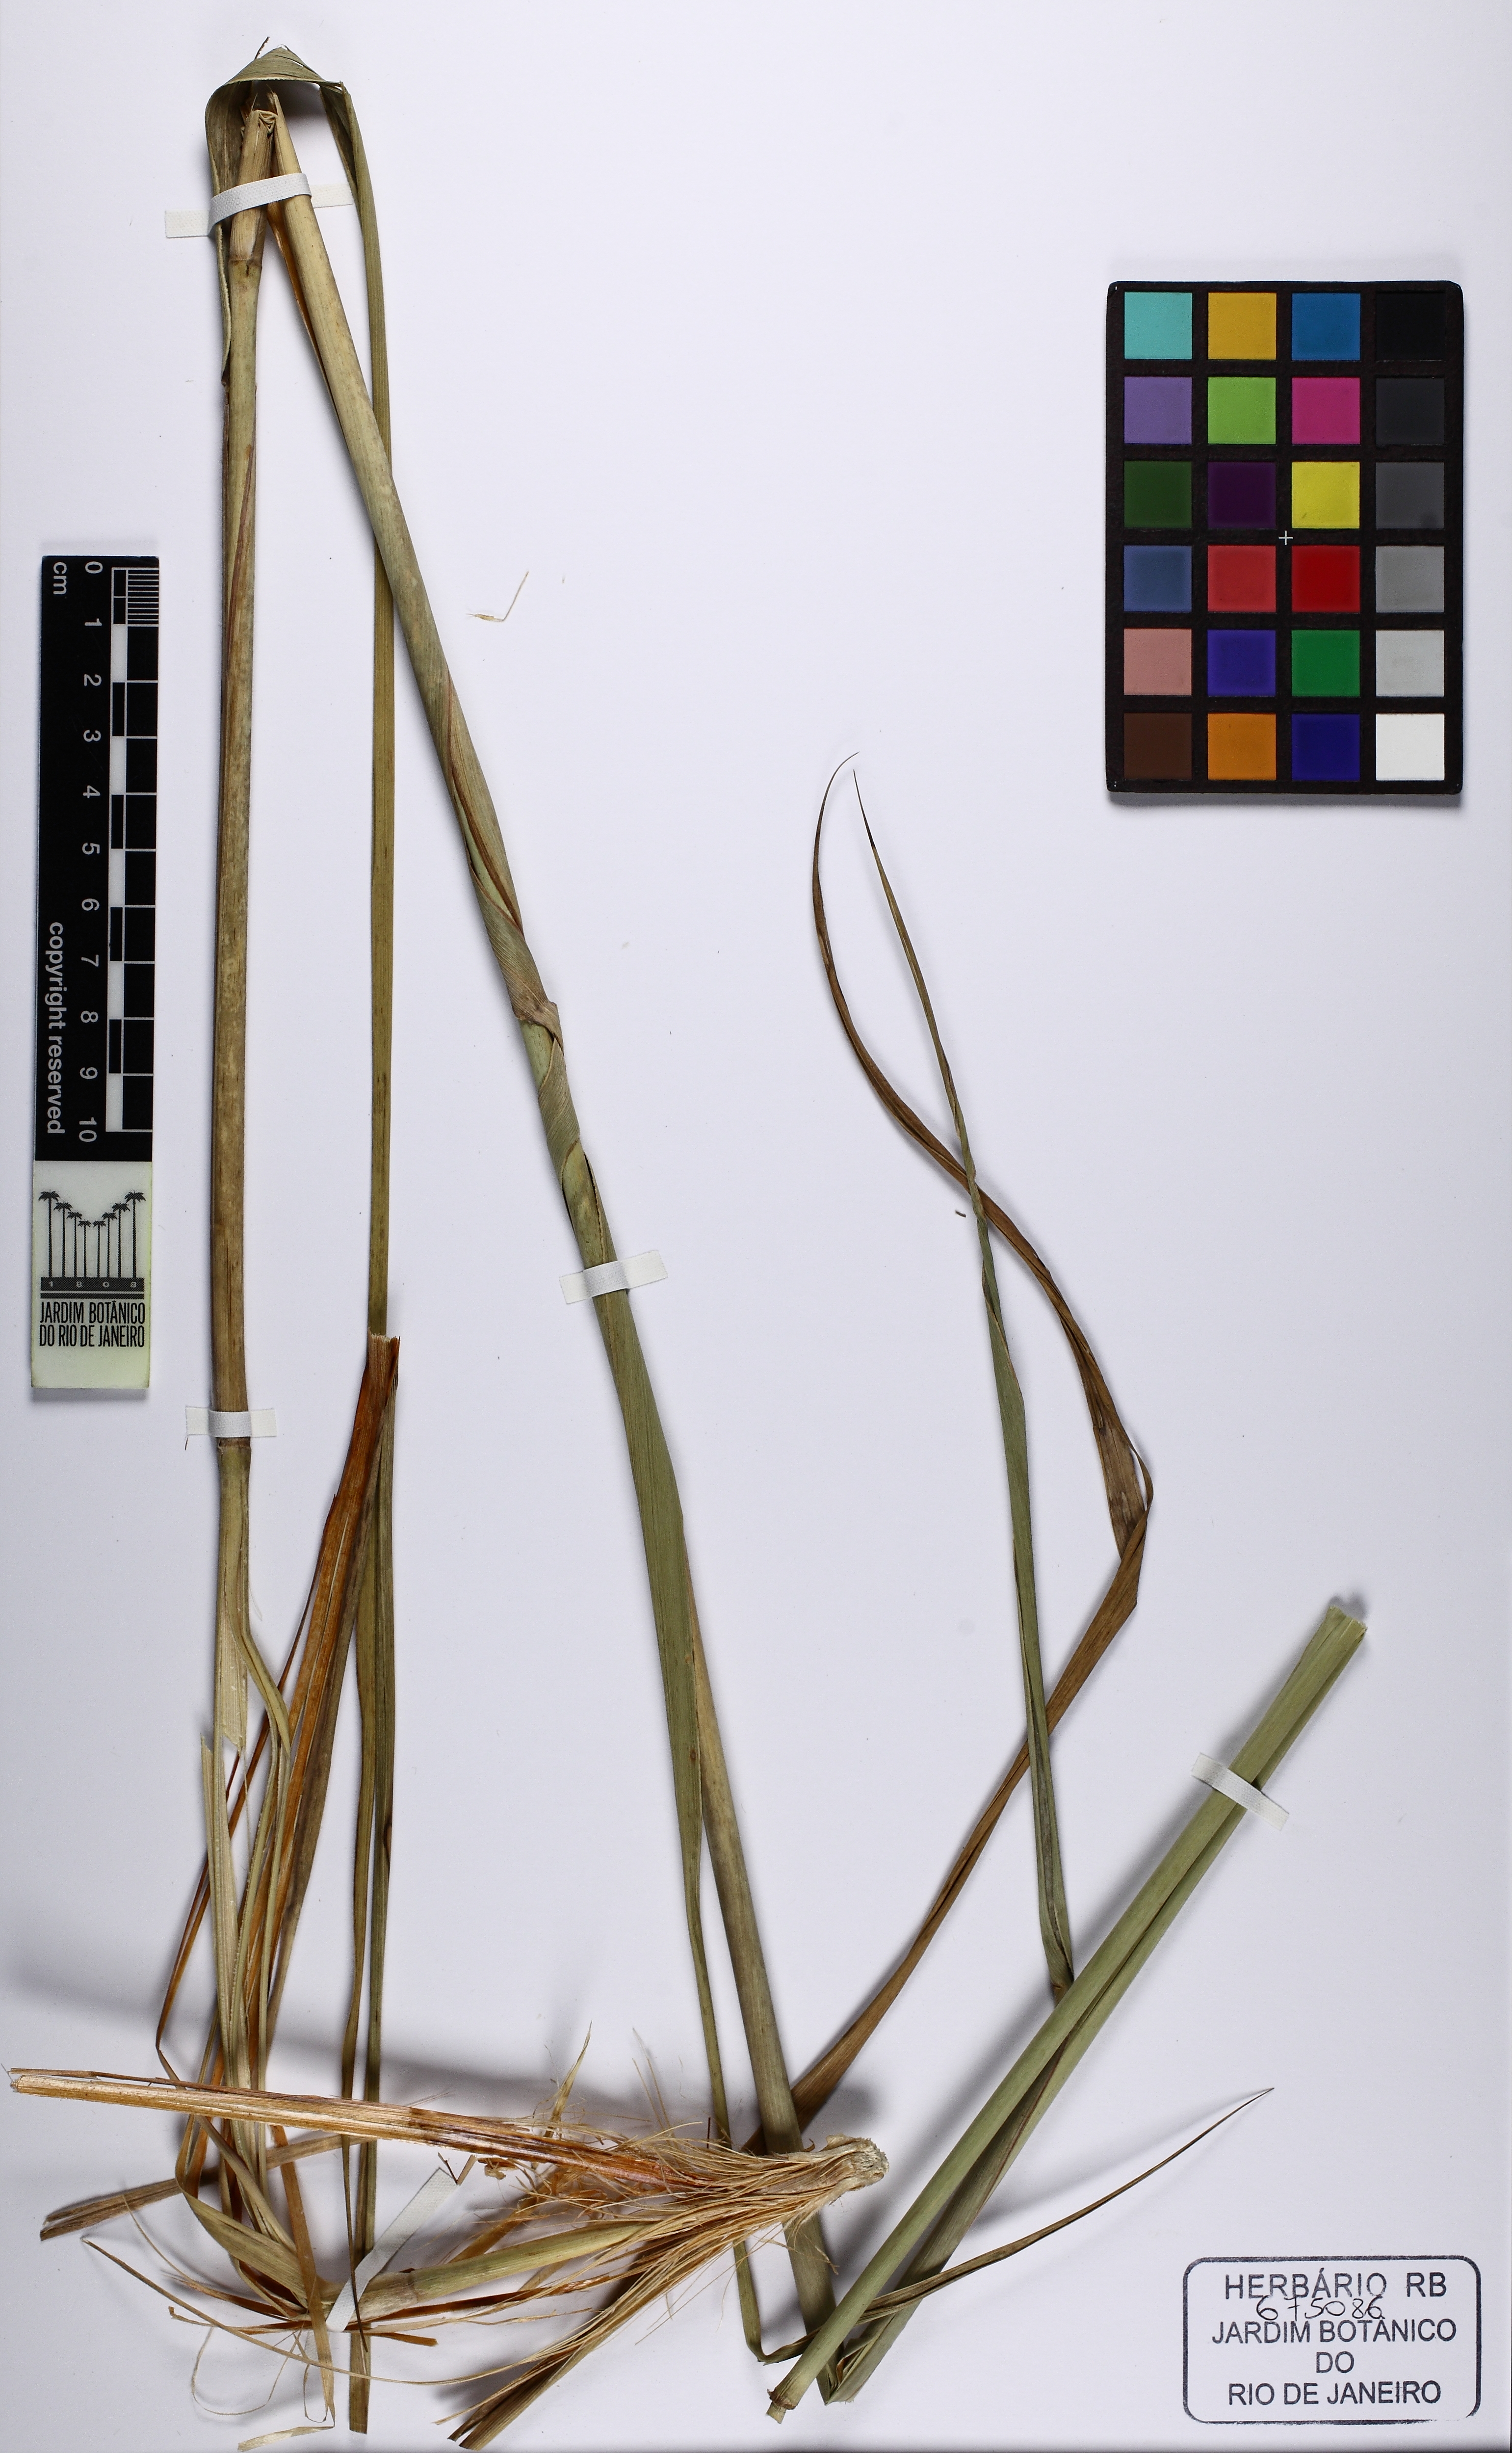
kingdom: Plantae
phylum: Tracheophyta
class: Liliopsida
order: Poales
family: Poaceae
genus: Tristachya
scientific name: Tristachya leiostachya
